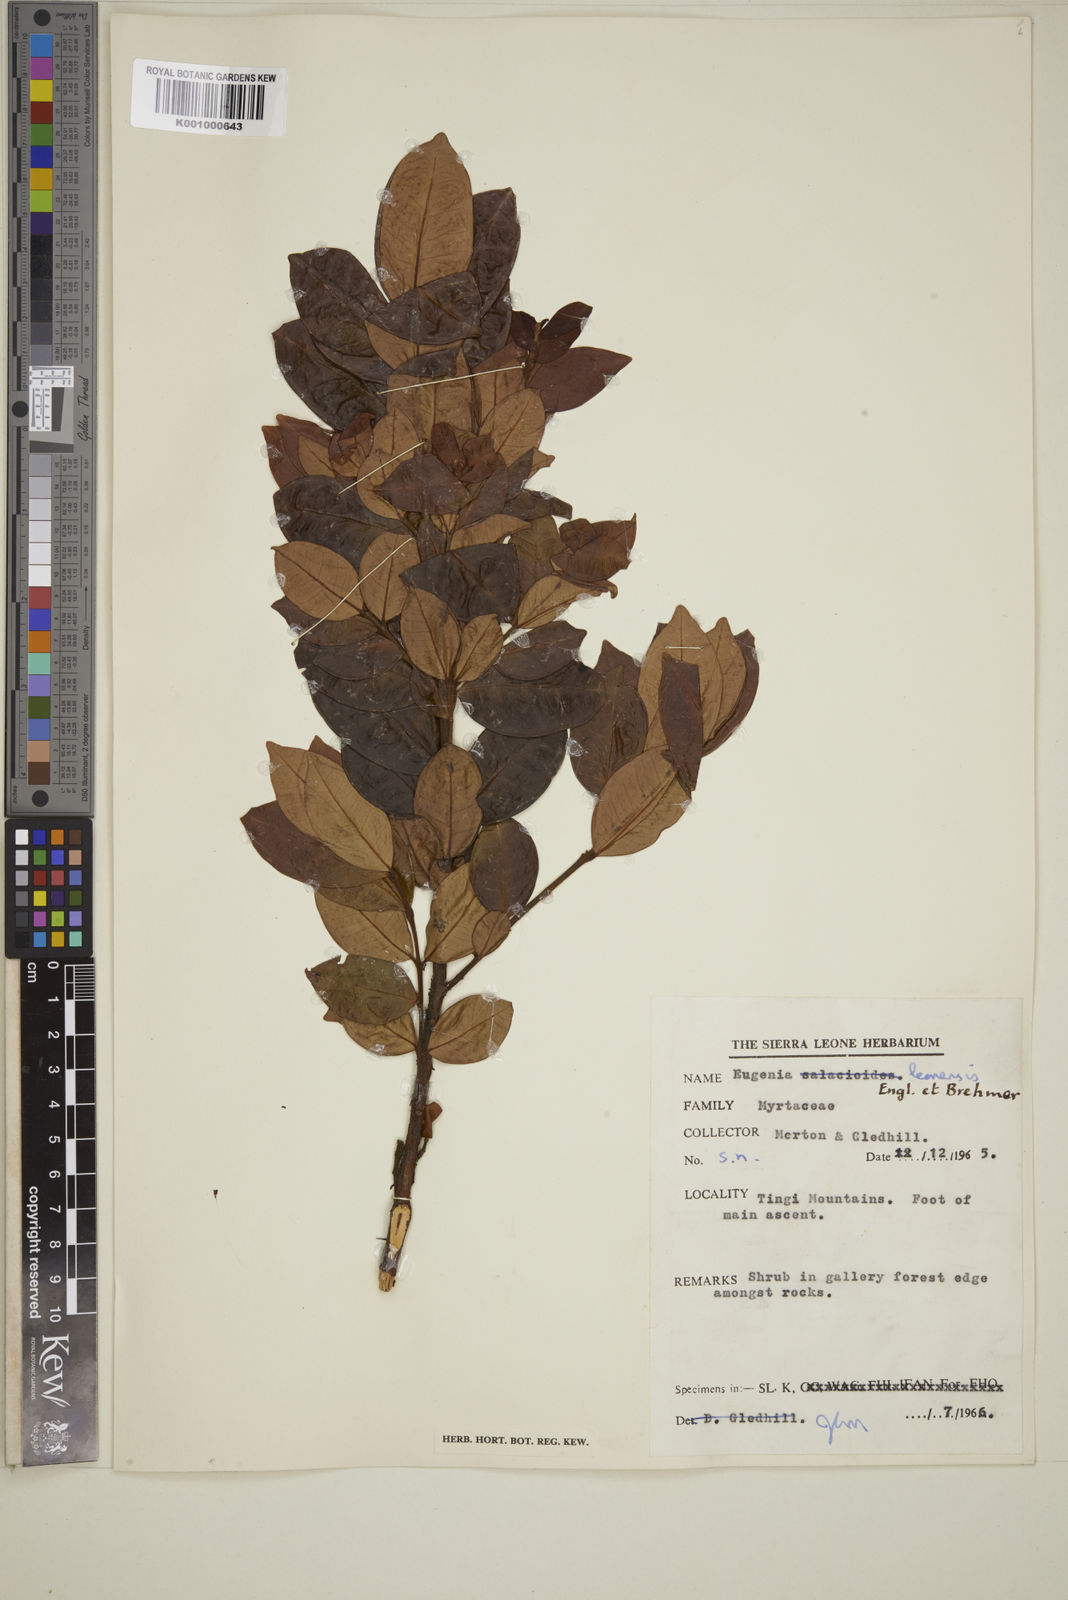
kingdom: Plantae
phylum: Tracheophyta
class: Magnoliopsida
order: Myrtales
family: Myrtaceae
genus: Eugenia
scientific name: Eugenia leonensis
